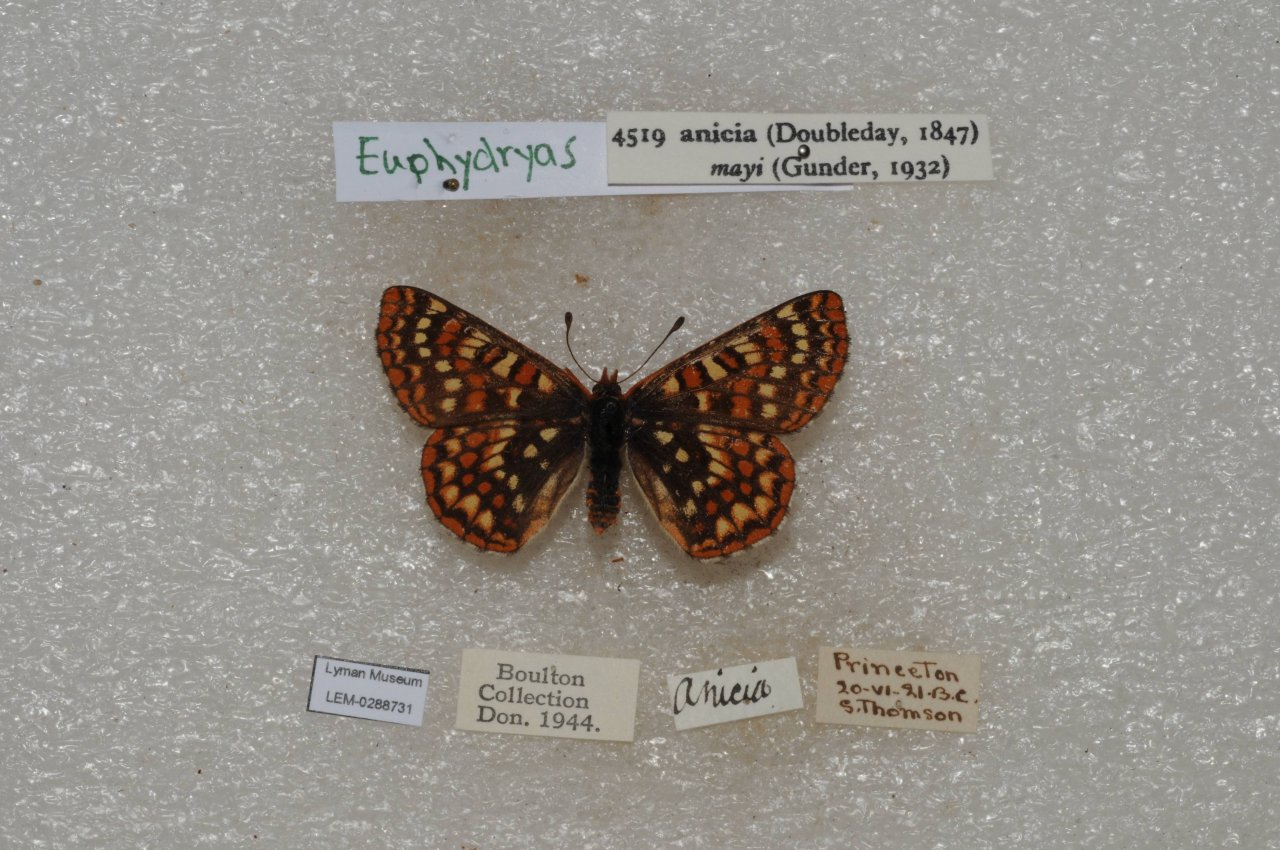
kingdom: Animalia
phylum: Arthropoda
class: Insecta
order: Lepidoptera
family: Nymphalidae
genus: Occidryas
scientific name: Occidryas anicia
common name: Anicia Checkerspot
